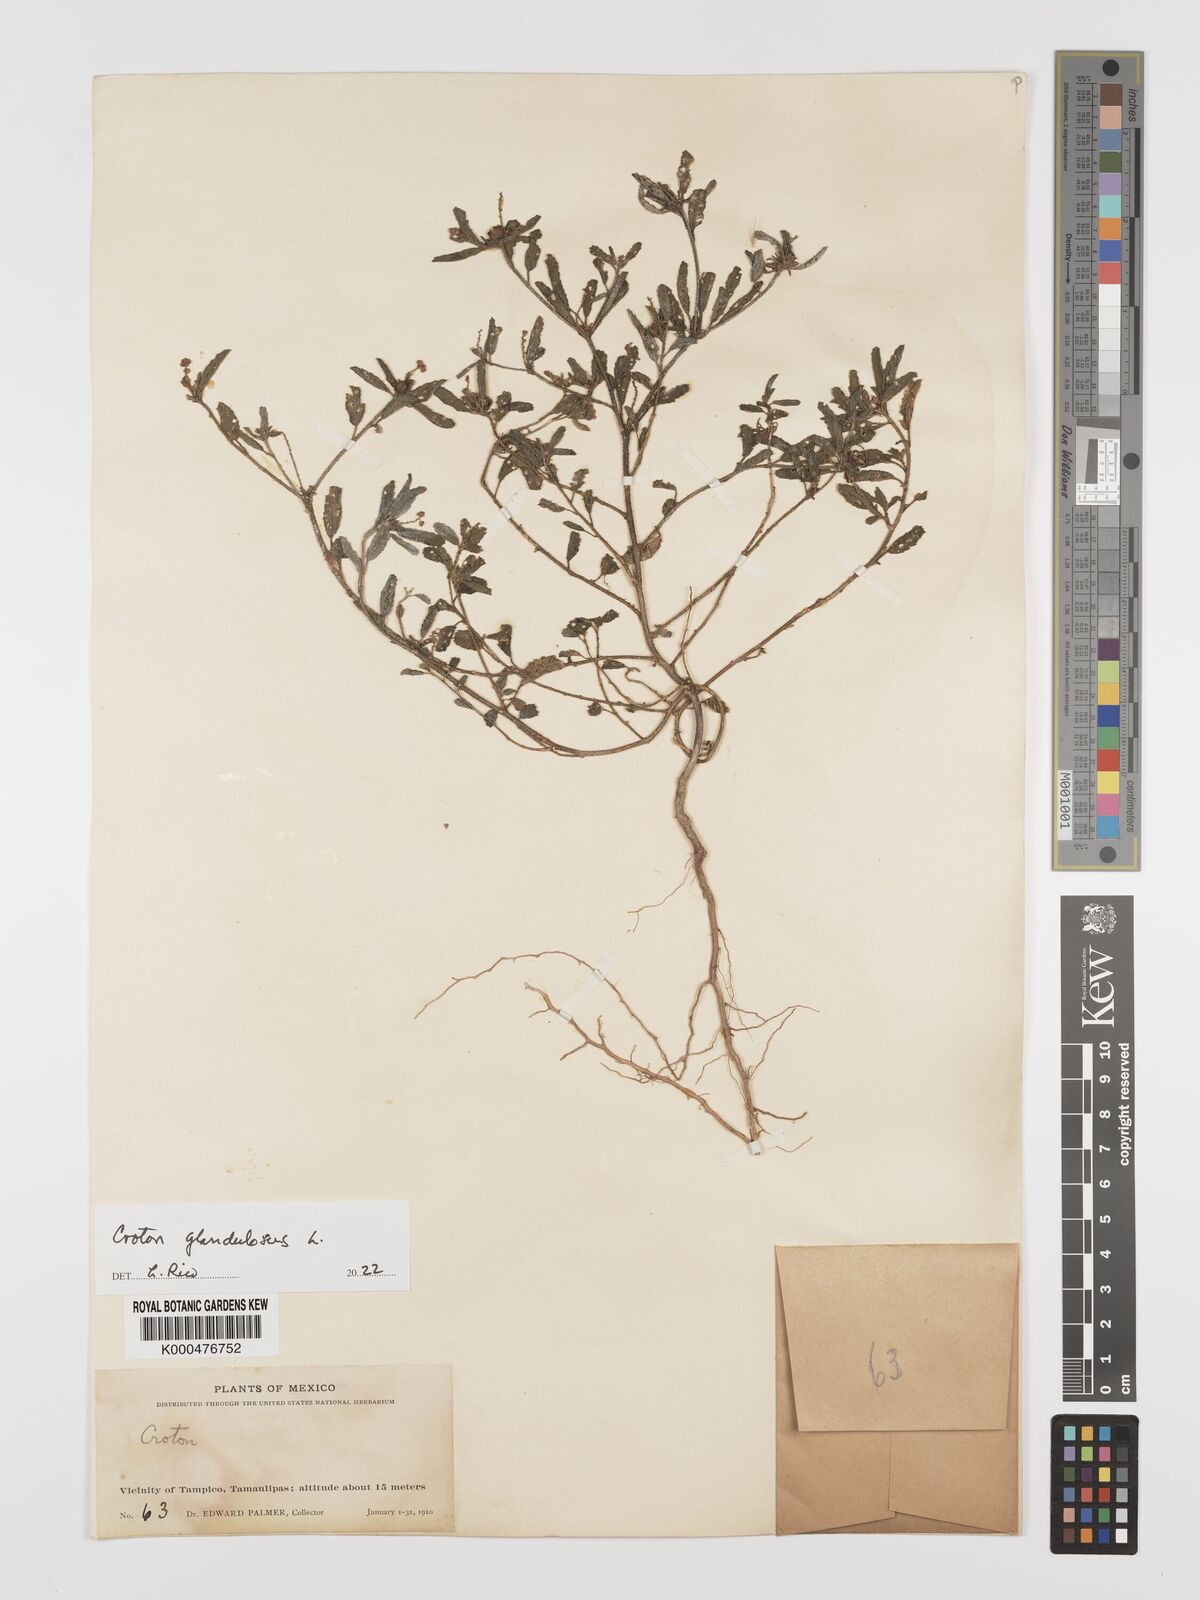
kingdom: Plantae
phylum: Tracheophyta
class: Magnoliopsida
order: Malpighiales
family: Euphorbiaceae
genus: Croton
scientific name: Croton glandulosus
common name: Tropic croton
